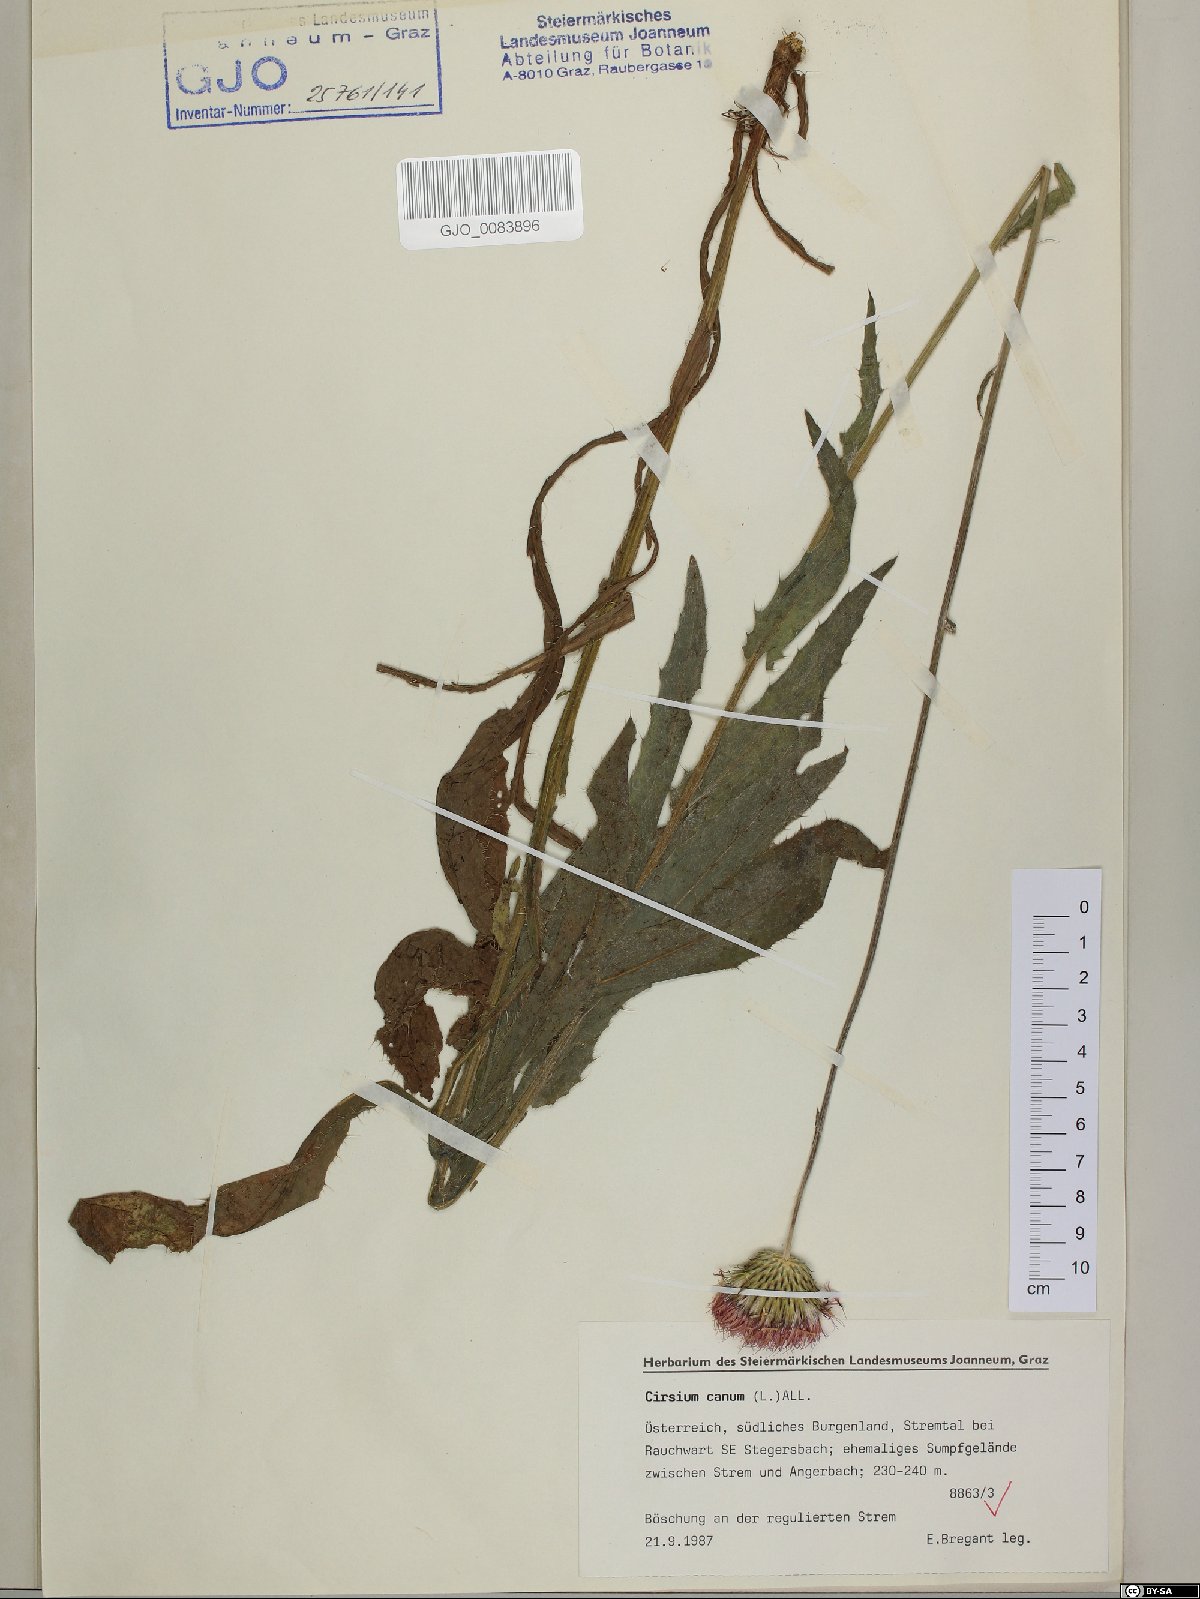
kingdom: Plantae
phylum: Tracheophyta
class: Magnoliopsida
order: Asterales
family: Asteraceae
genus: Cirsium
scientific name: Cirsium canum
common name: Queen anne's thistle
